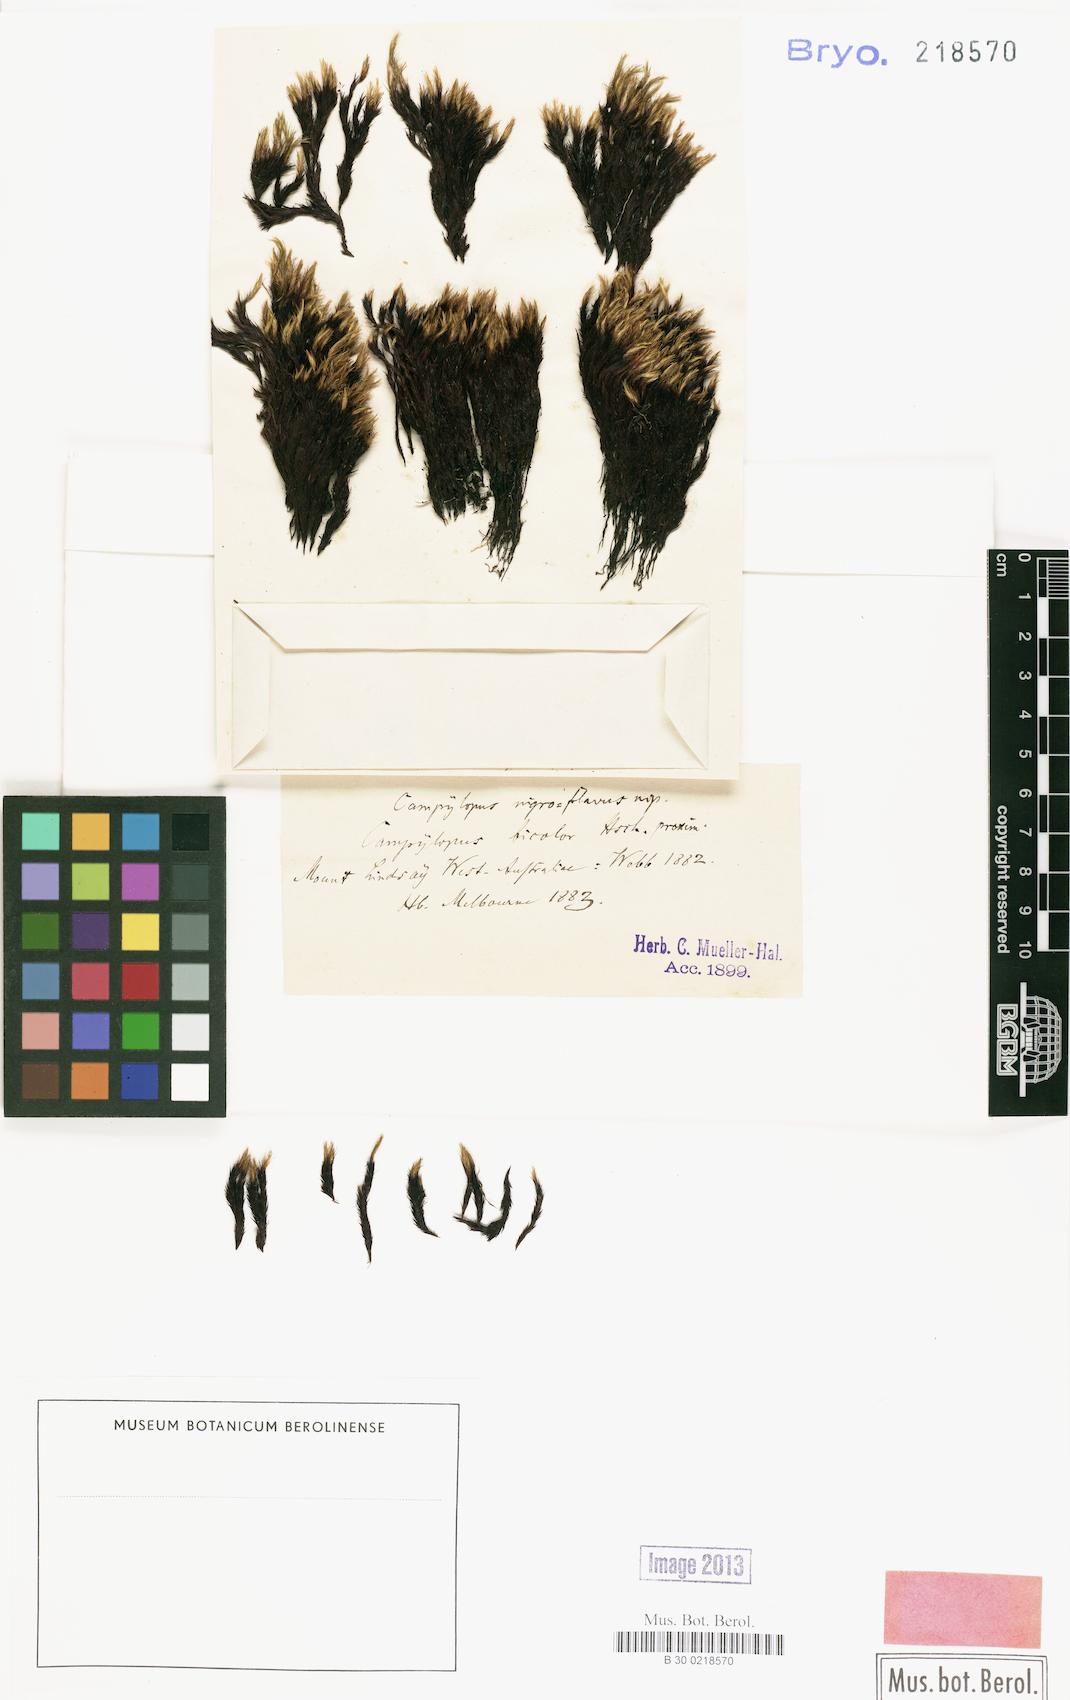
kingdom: Plantae
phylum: Bryophyta
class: Bryopsida
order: Dicranales
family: Leucobryaceae
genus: Campylopus
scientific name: Campylopus acuminatus
